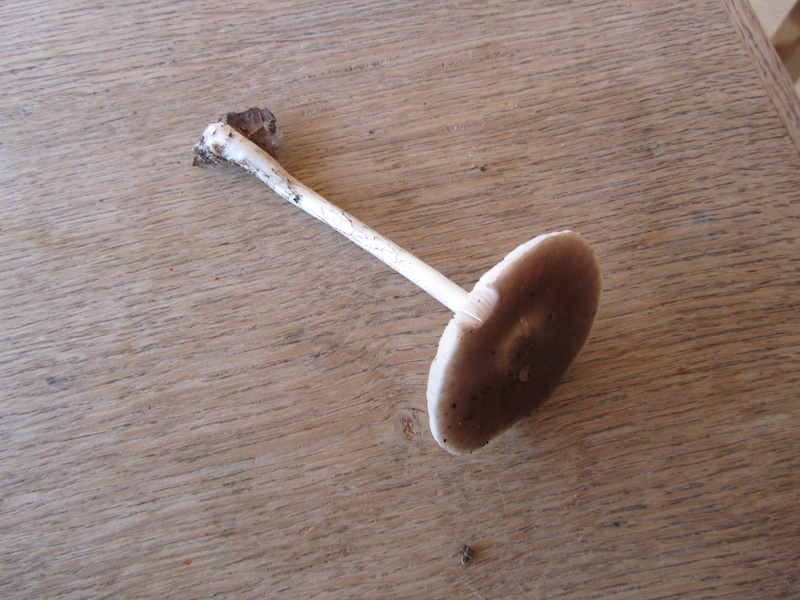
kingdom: Fungi
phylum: Basidiomycota
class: Agaricomycetes
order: Agaricales
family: Pluteaceae
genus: Pluteus
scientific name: Pluteus salicinus
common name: stiv skærmhat
